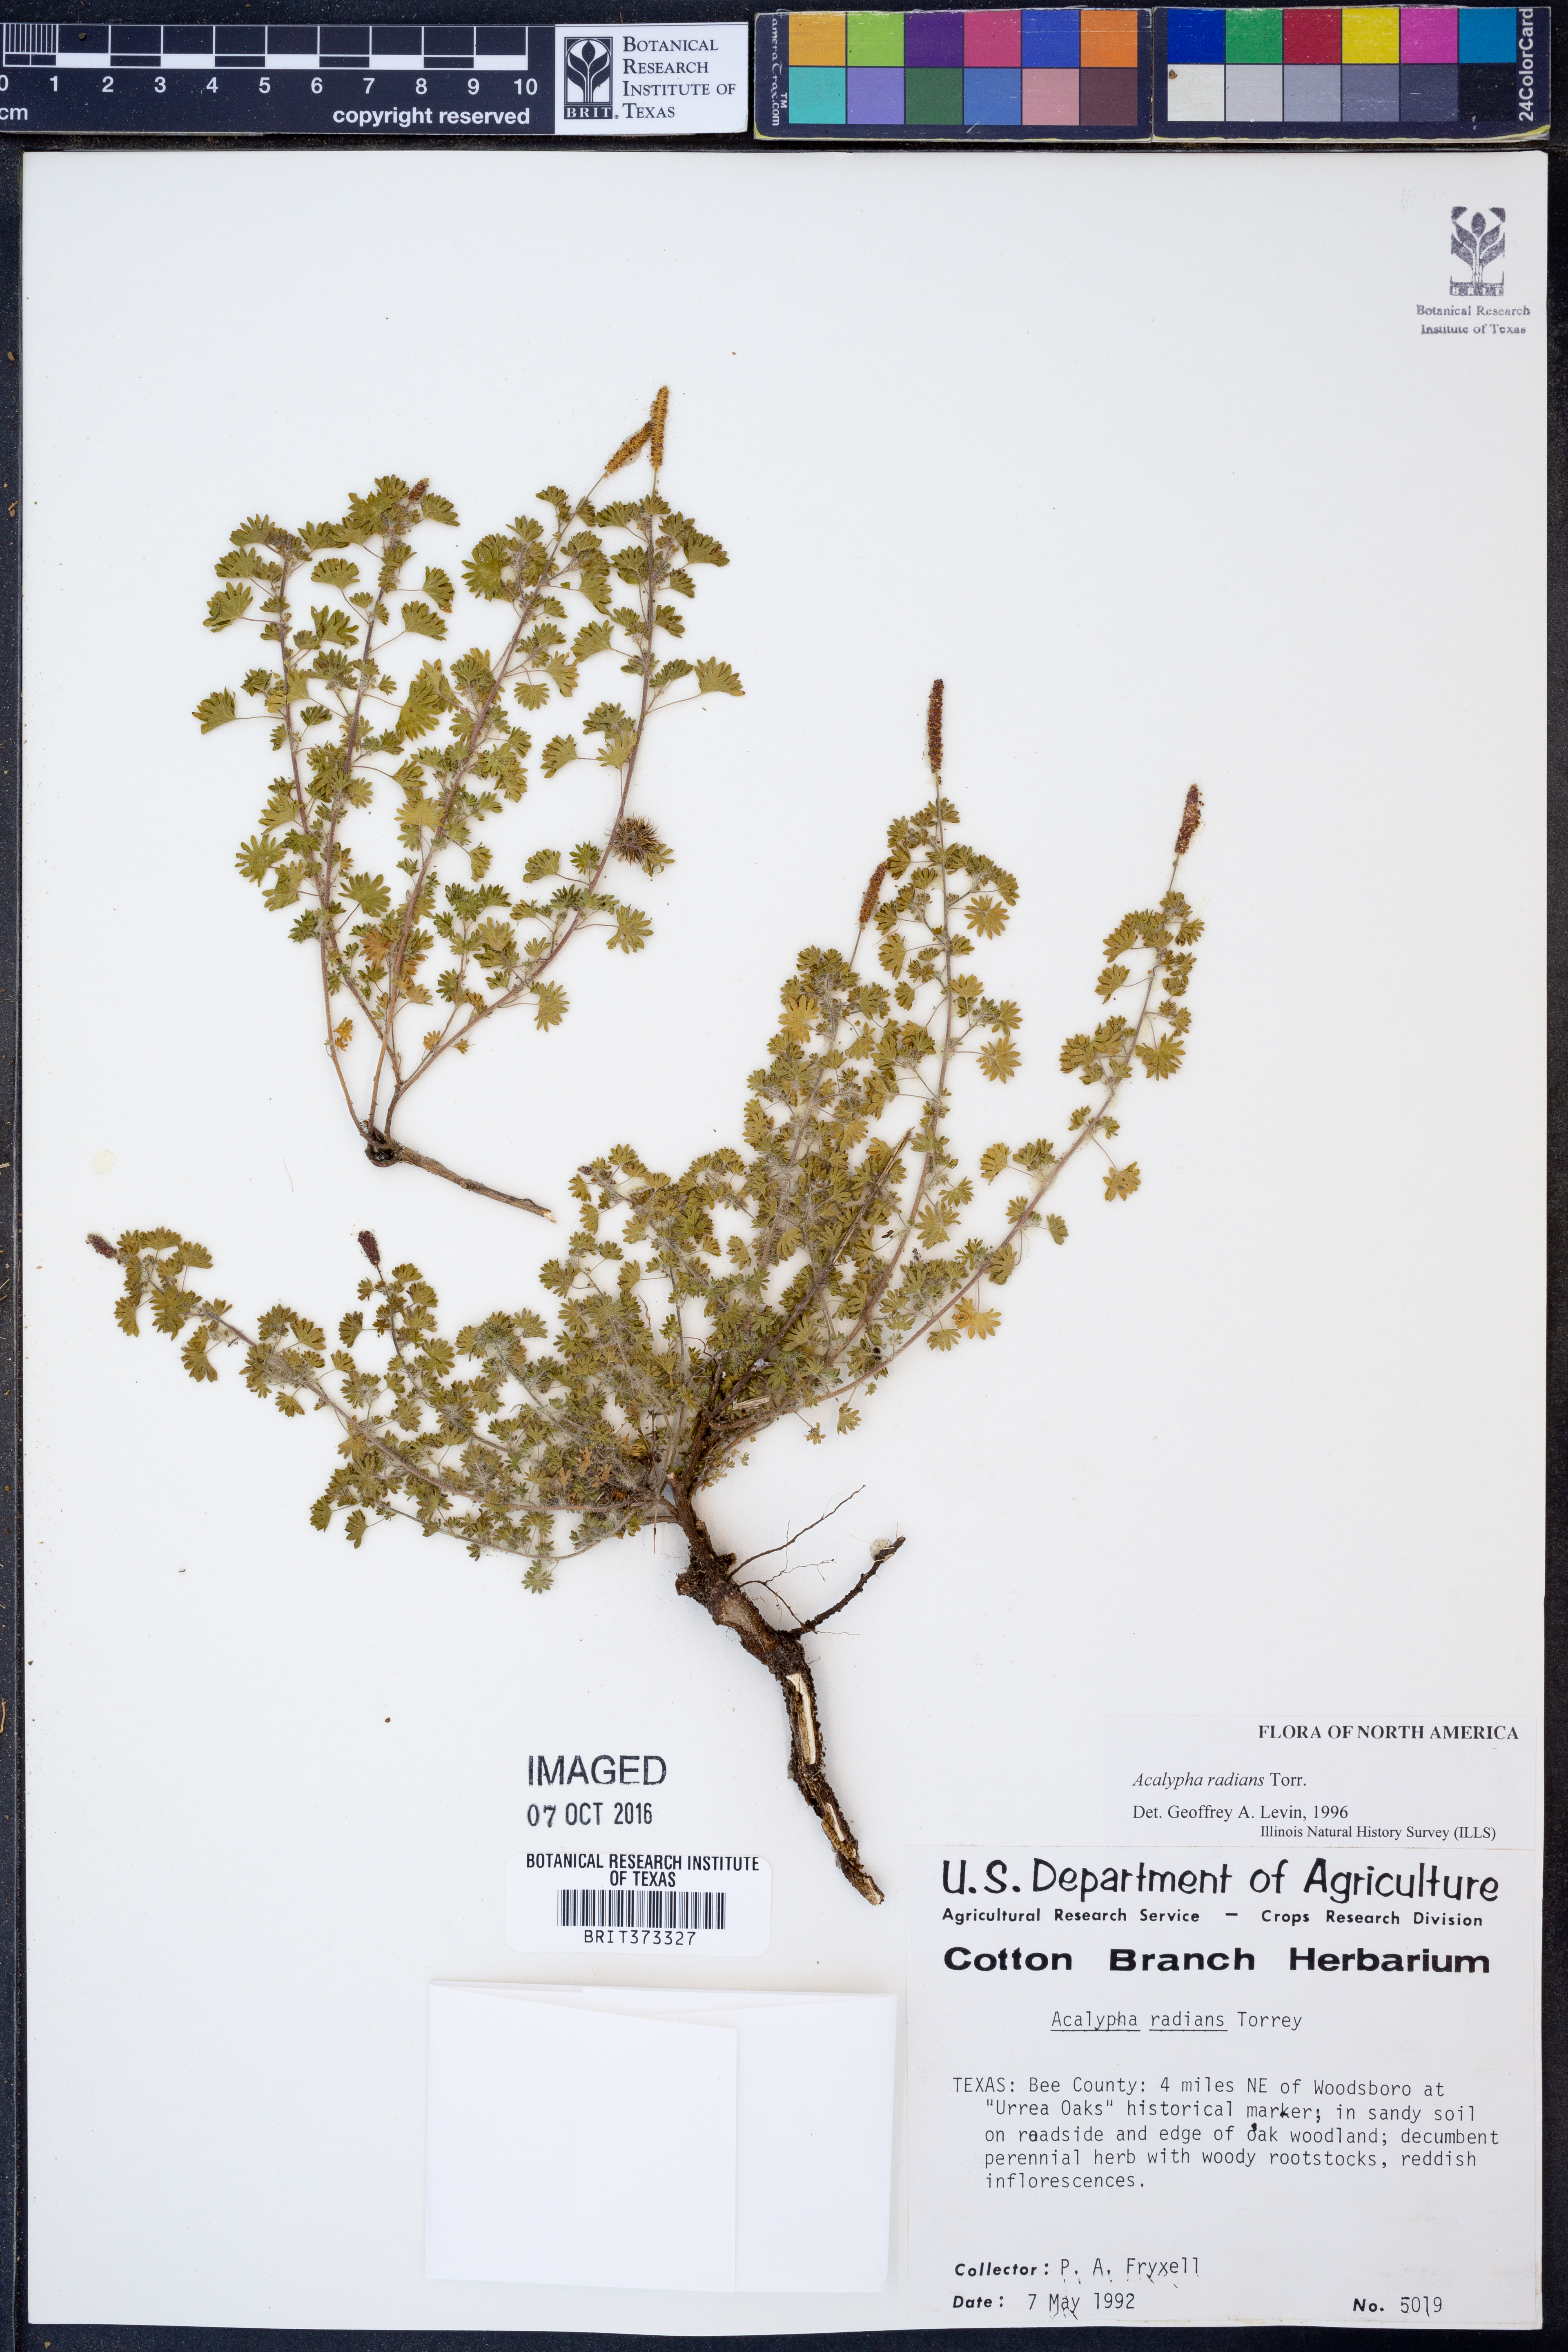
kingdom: Plantae
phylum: Tracheophyta
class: Magnoliopsida
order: Malpighiales
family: Euphorbiaceae
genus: Acalypha
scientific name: Acalypha radians
